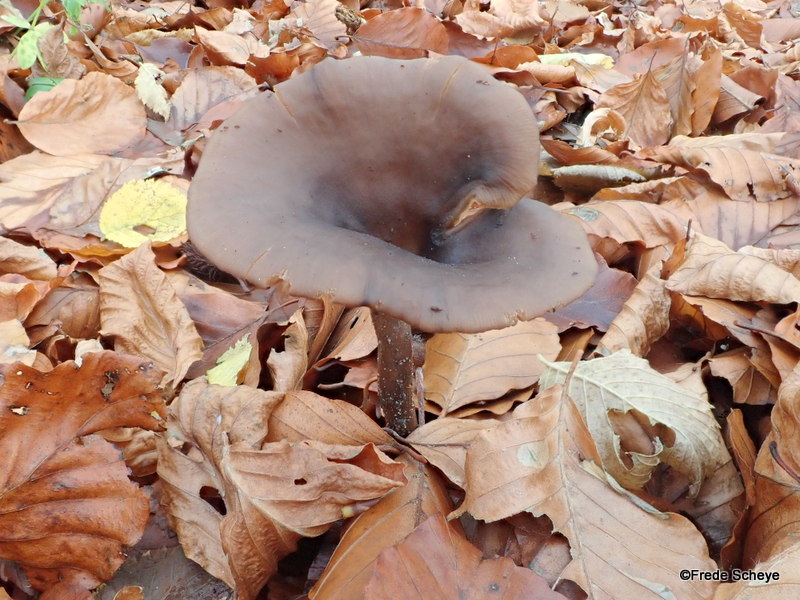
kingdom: Fungi
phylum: Basidiomycota
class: Agaricomycetes
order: Agaricales
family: Pseudoclitocybaceae
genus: Pseudoclitocybe
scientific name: Pseudoclitocybe cyathiformis
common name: almindelig bægertragthat
